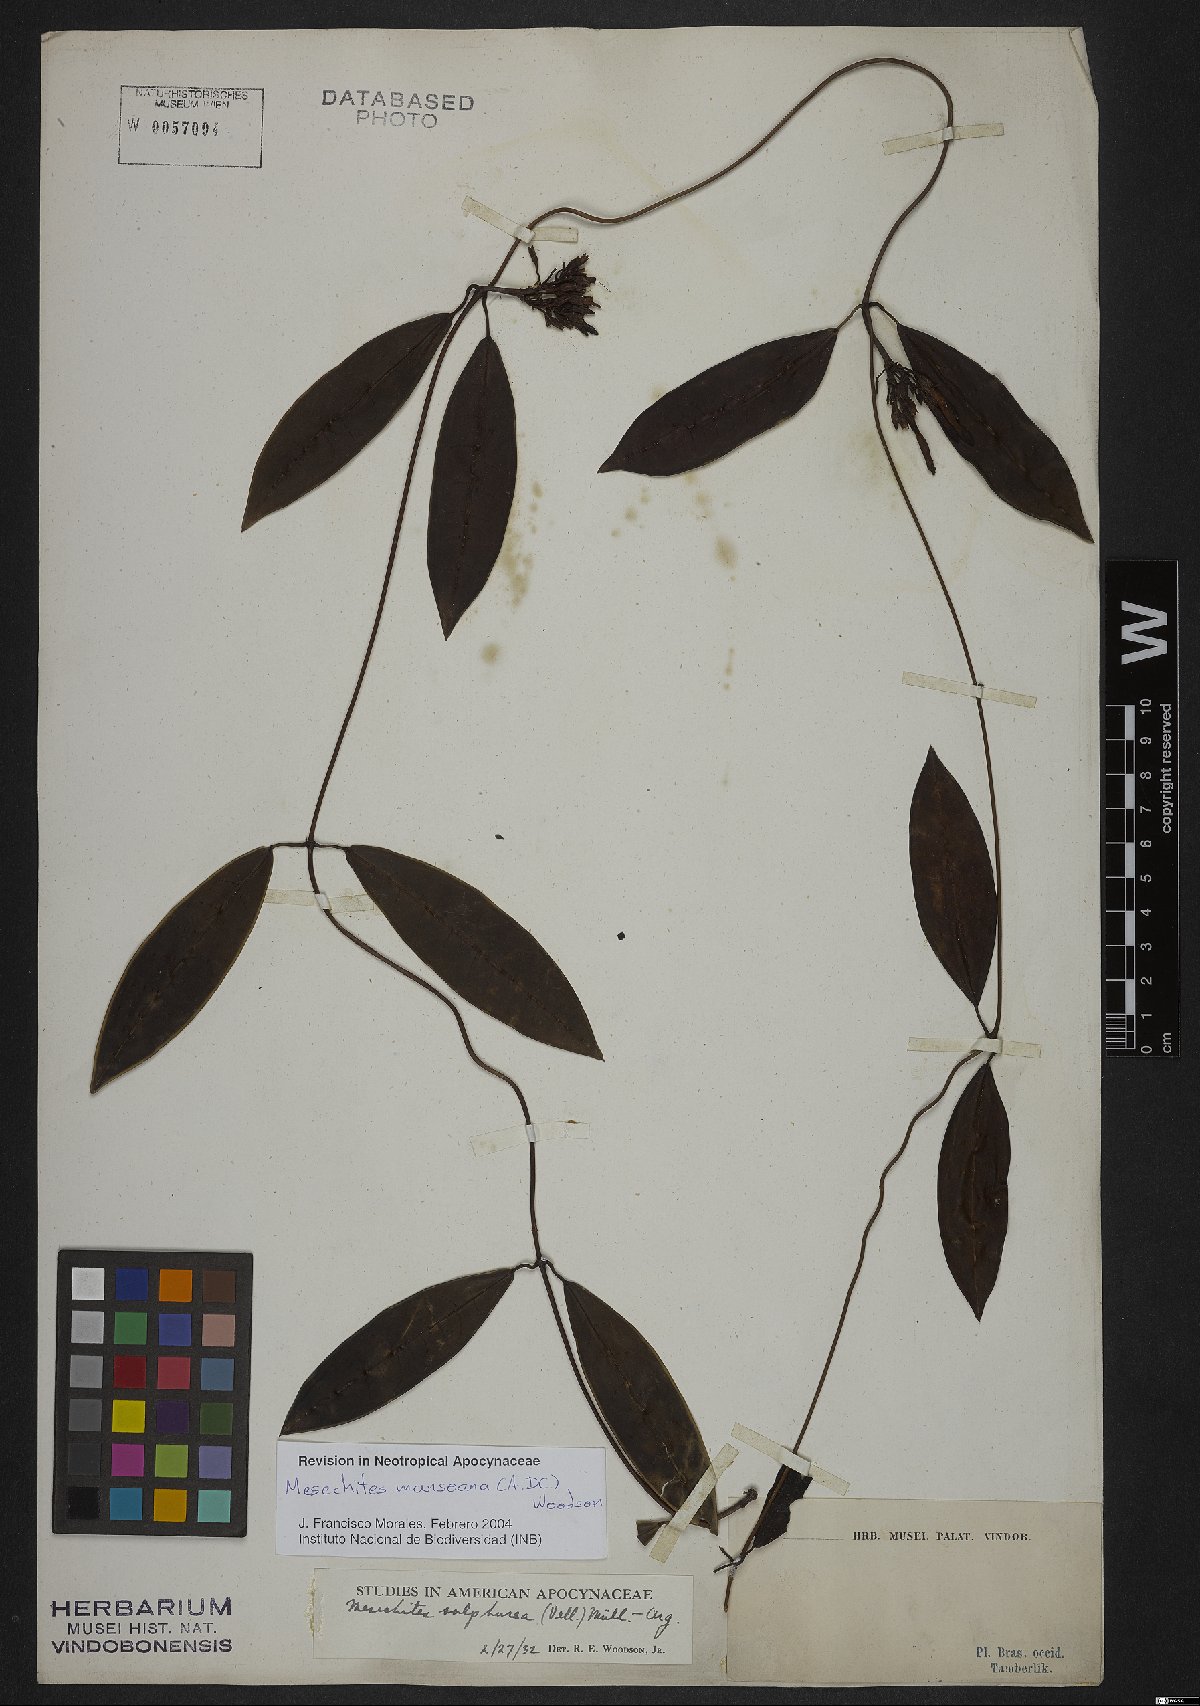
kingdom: Plantae
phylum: Tracheophyta
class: Magnoliopsida
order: Gentianales
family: Apocynaceae
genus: Mesechites
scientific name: Mesechites mansoanus
